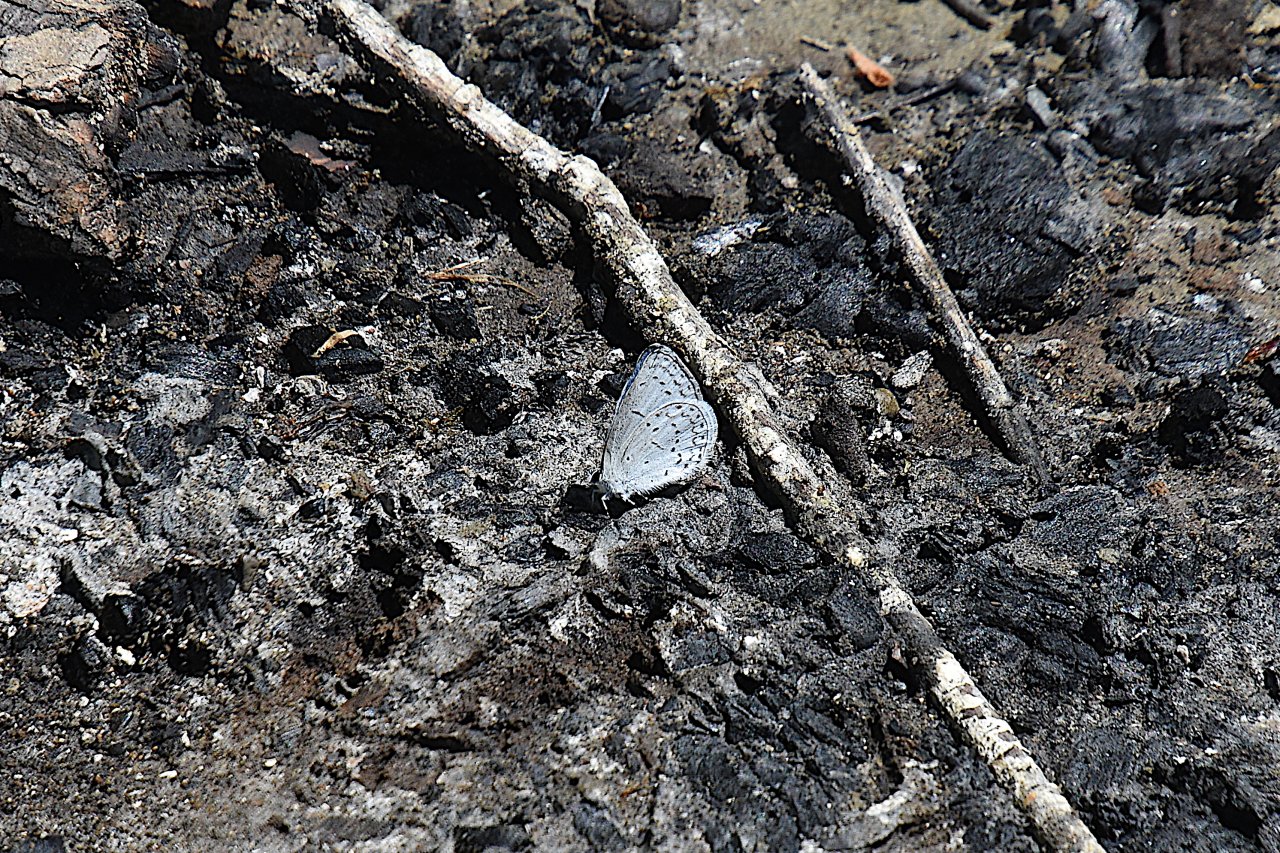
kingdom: Animalia
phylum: Arthropoda
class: Insecta
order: Lepidoptera
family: Lycaenidae
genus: Celastrina
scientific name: Celastrina ladon
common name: Echo Azure
